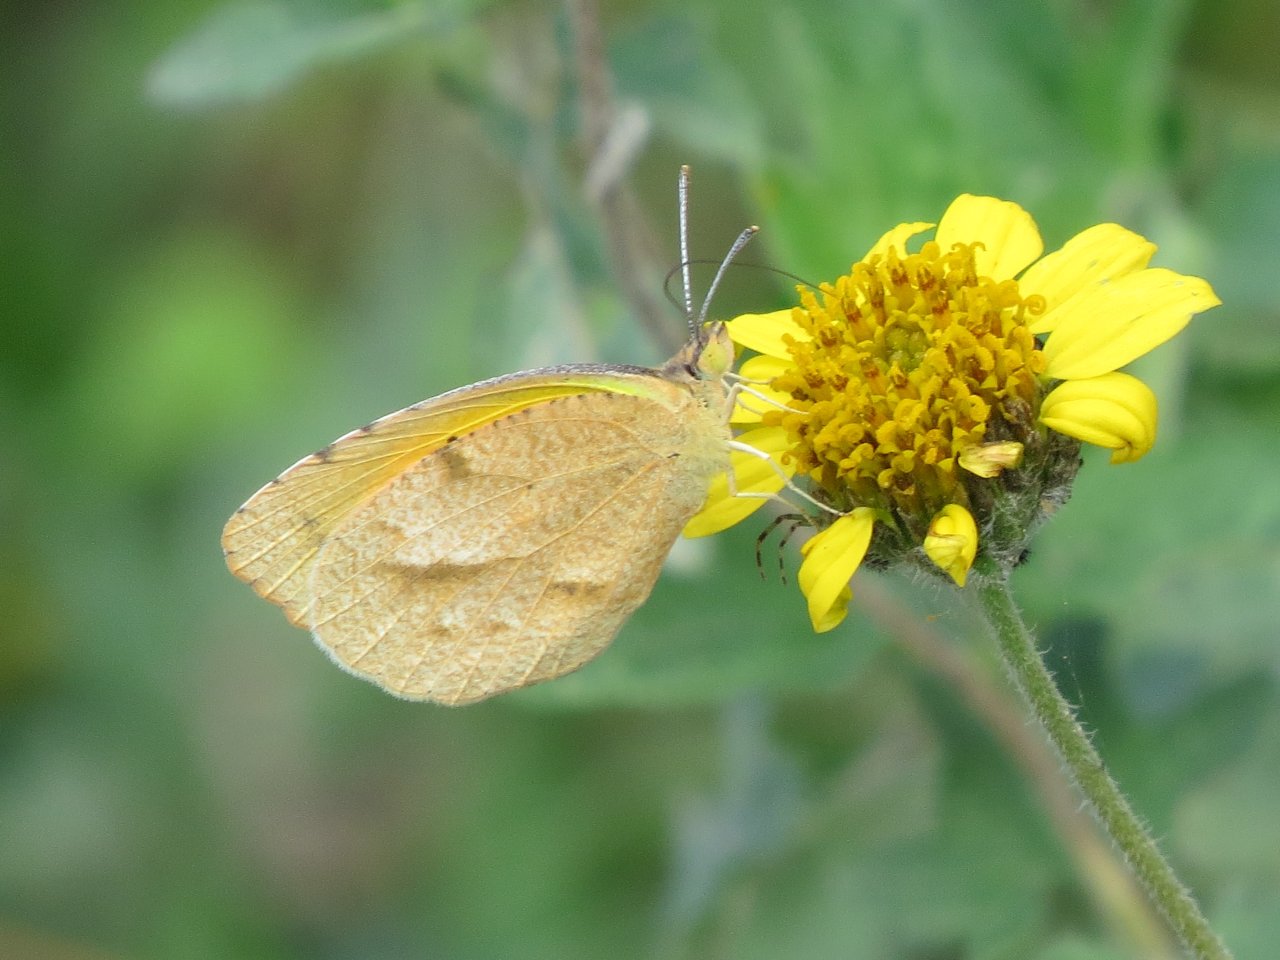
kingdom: Animalia
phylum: Arthropoda
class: Insecta
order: Lepidoptera
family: Pieridae
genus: Abaeis
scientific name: Abaeis nicippe
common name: Sleepy Orange
